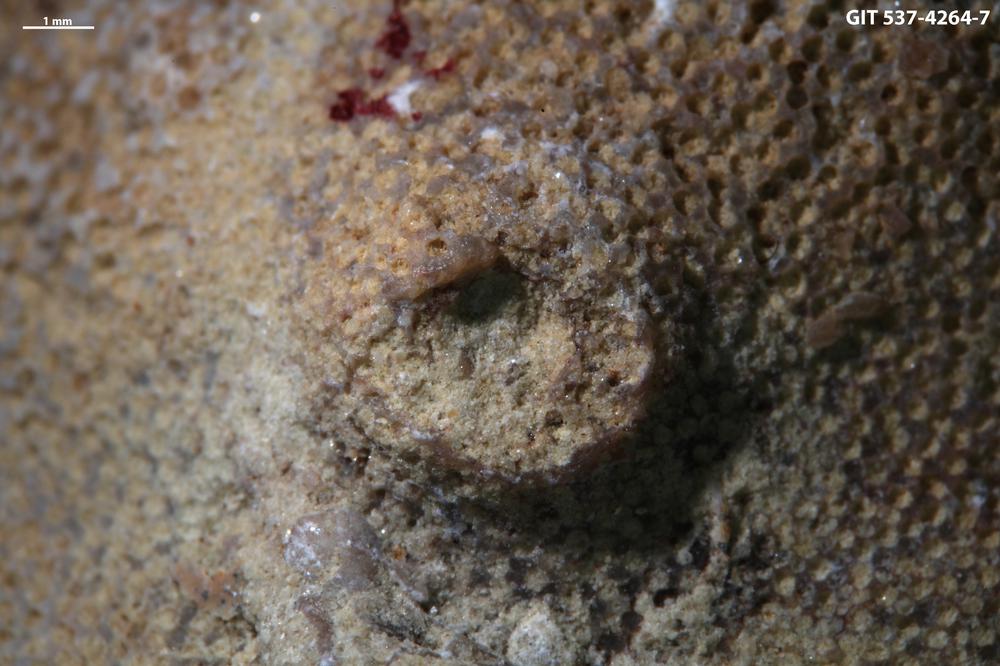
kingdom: Animalia
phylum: Cnidaria
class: Scyphozoa
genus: Climacoconus
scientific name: Climacoconus
